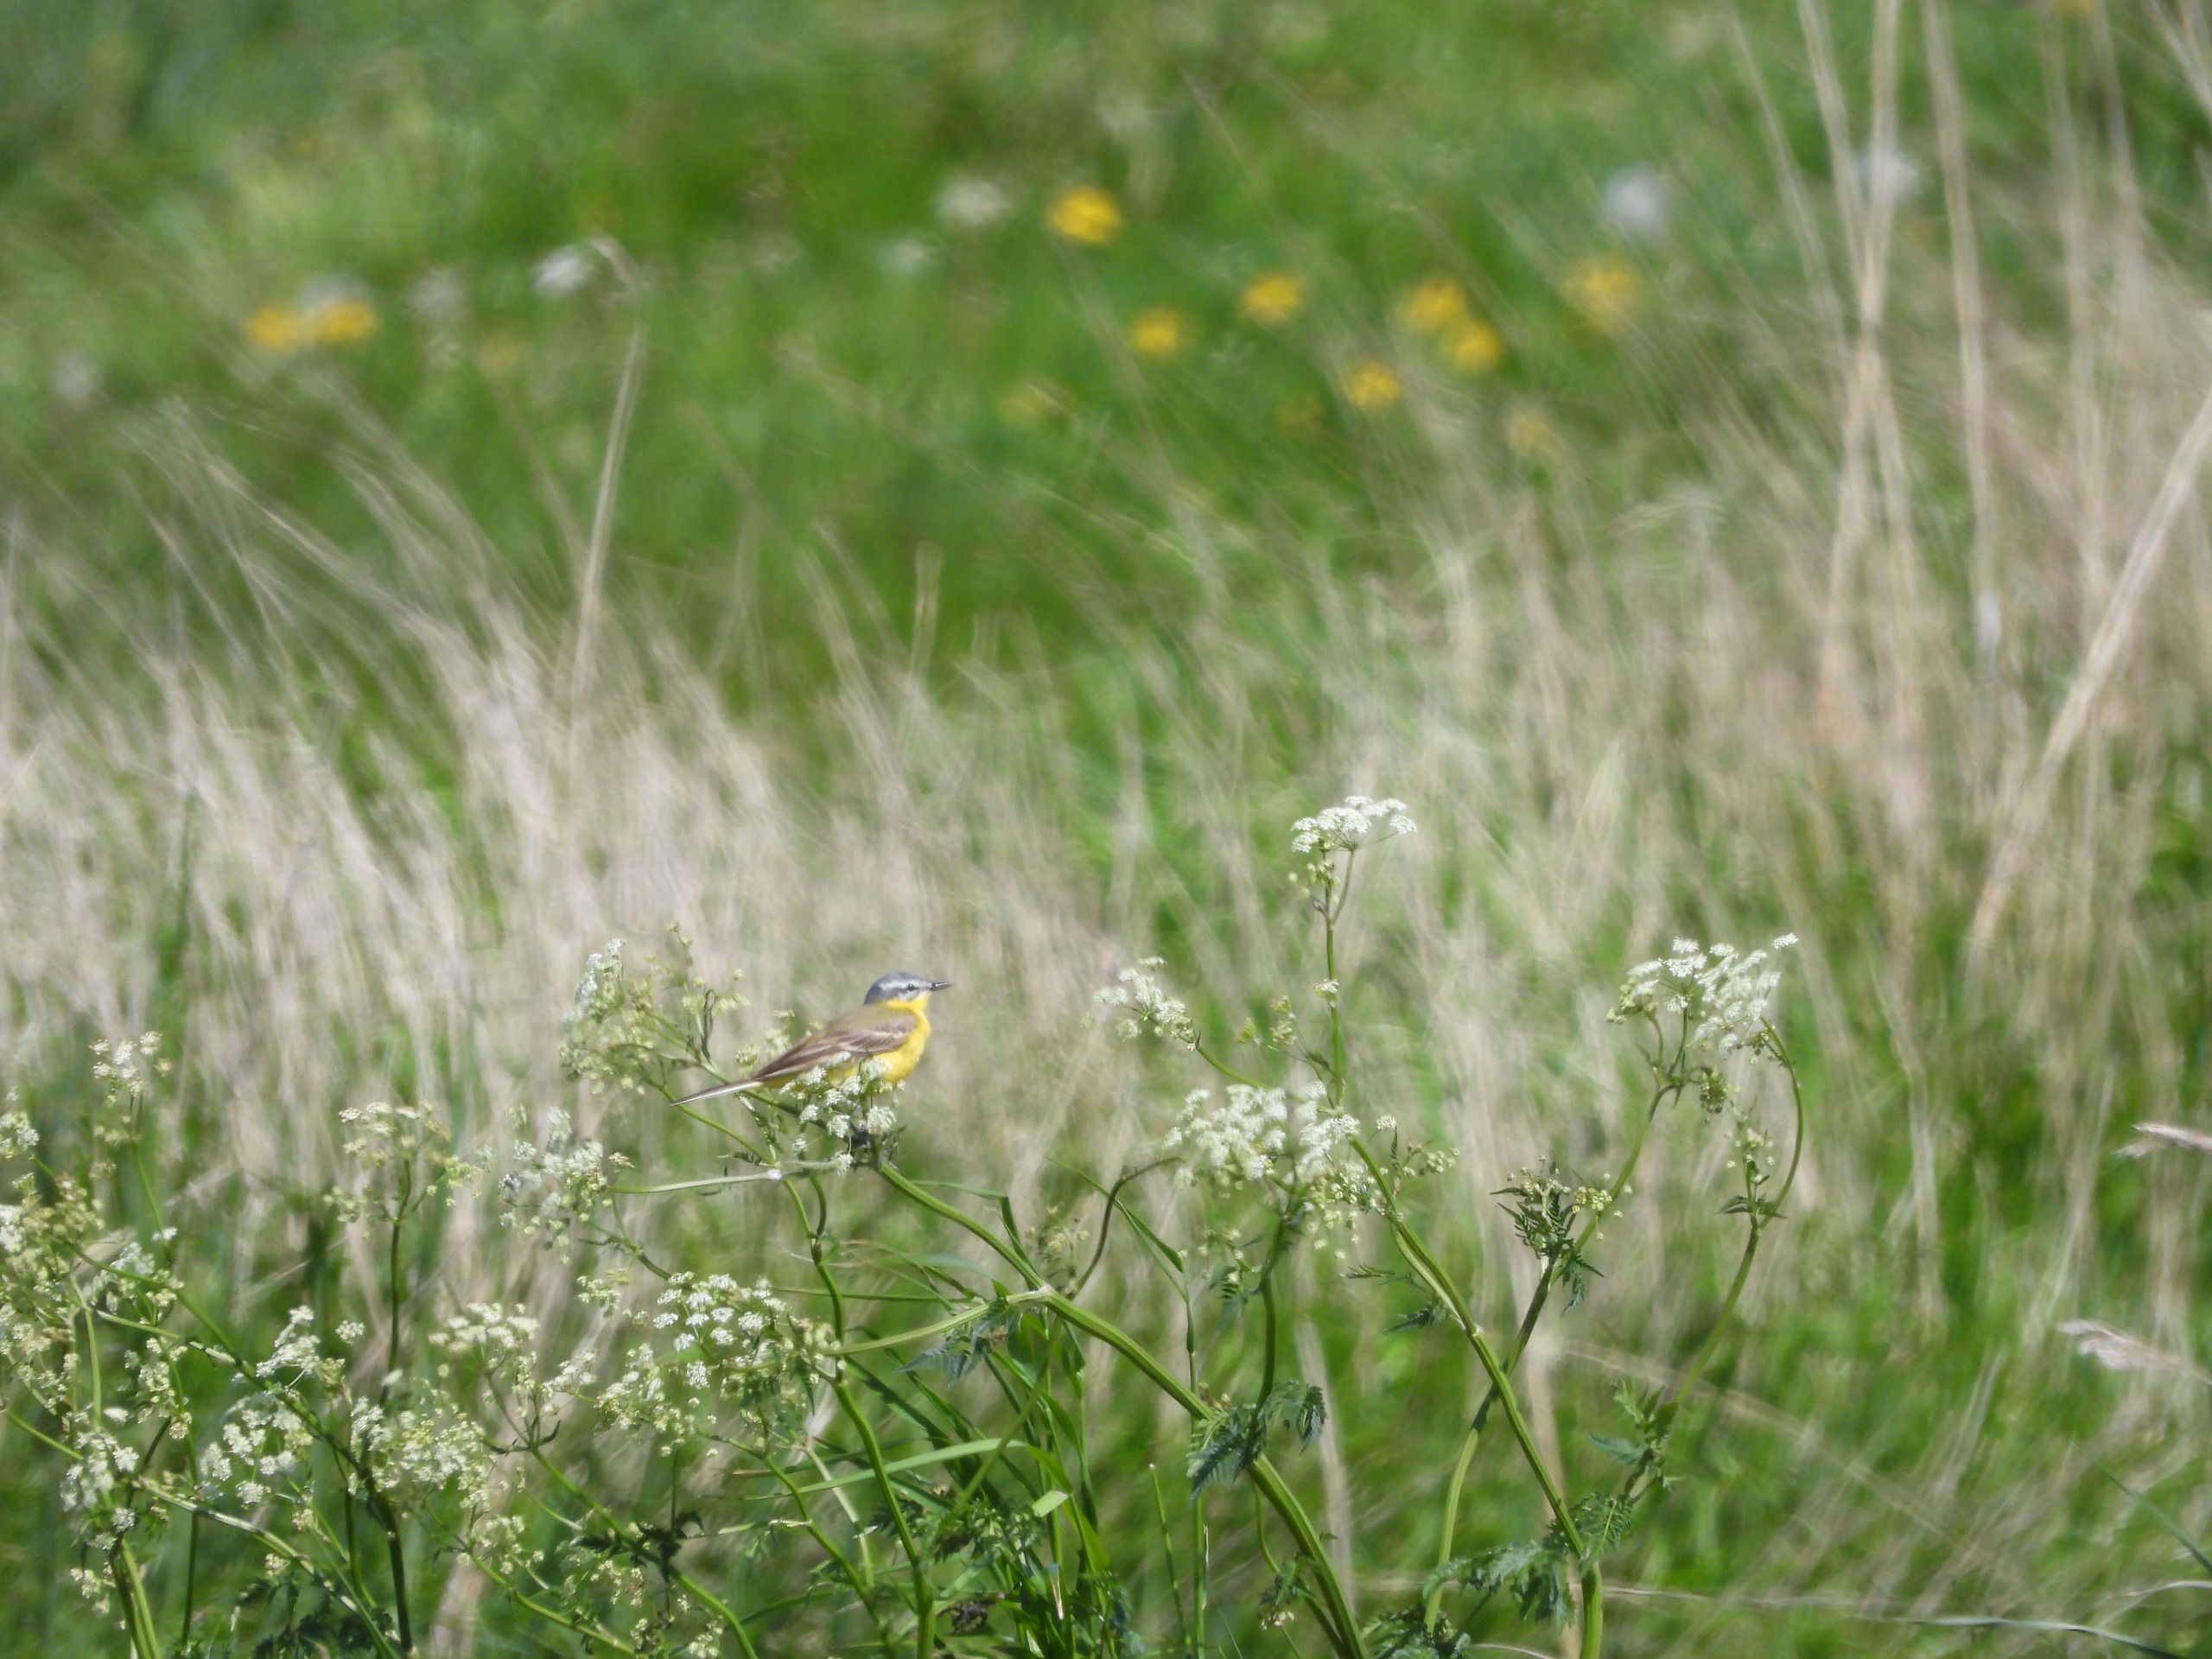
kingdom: Animalia
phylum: Chordata
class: Aves
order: Passeriformes
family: Motacillidae
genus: Motacilla
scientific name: Motacilla flava
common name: Gul vipstjert
